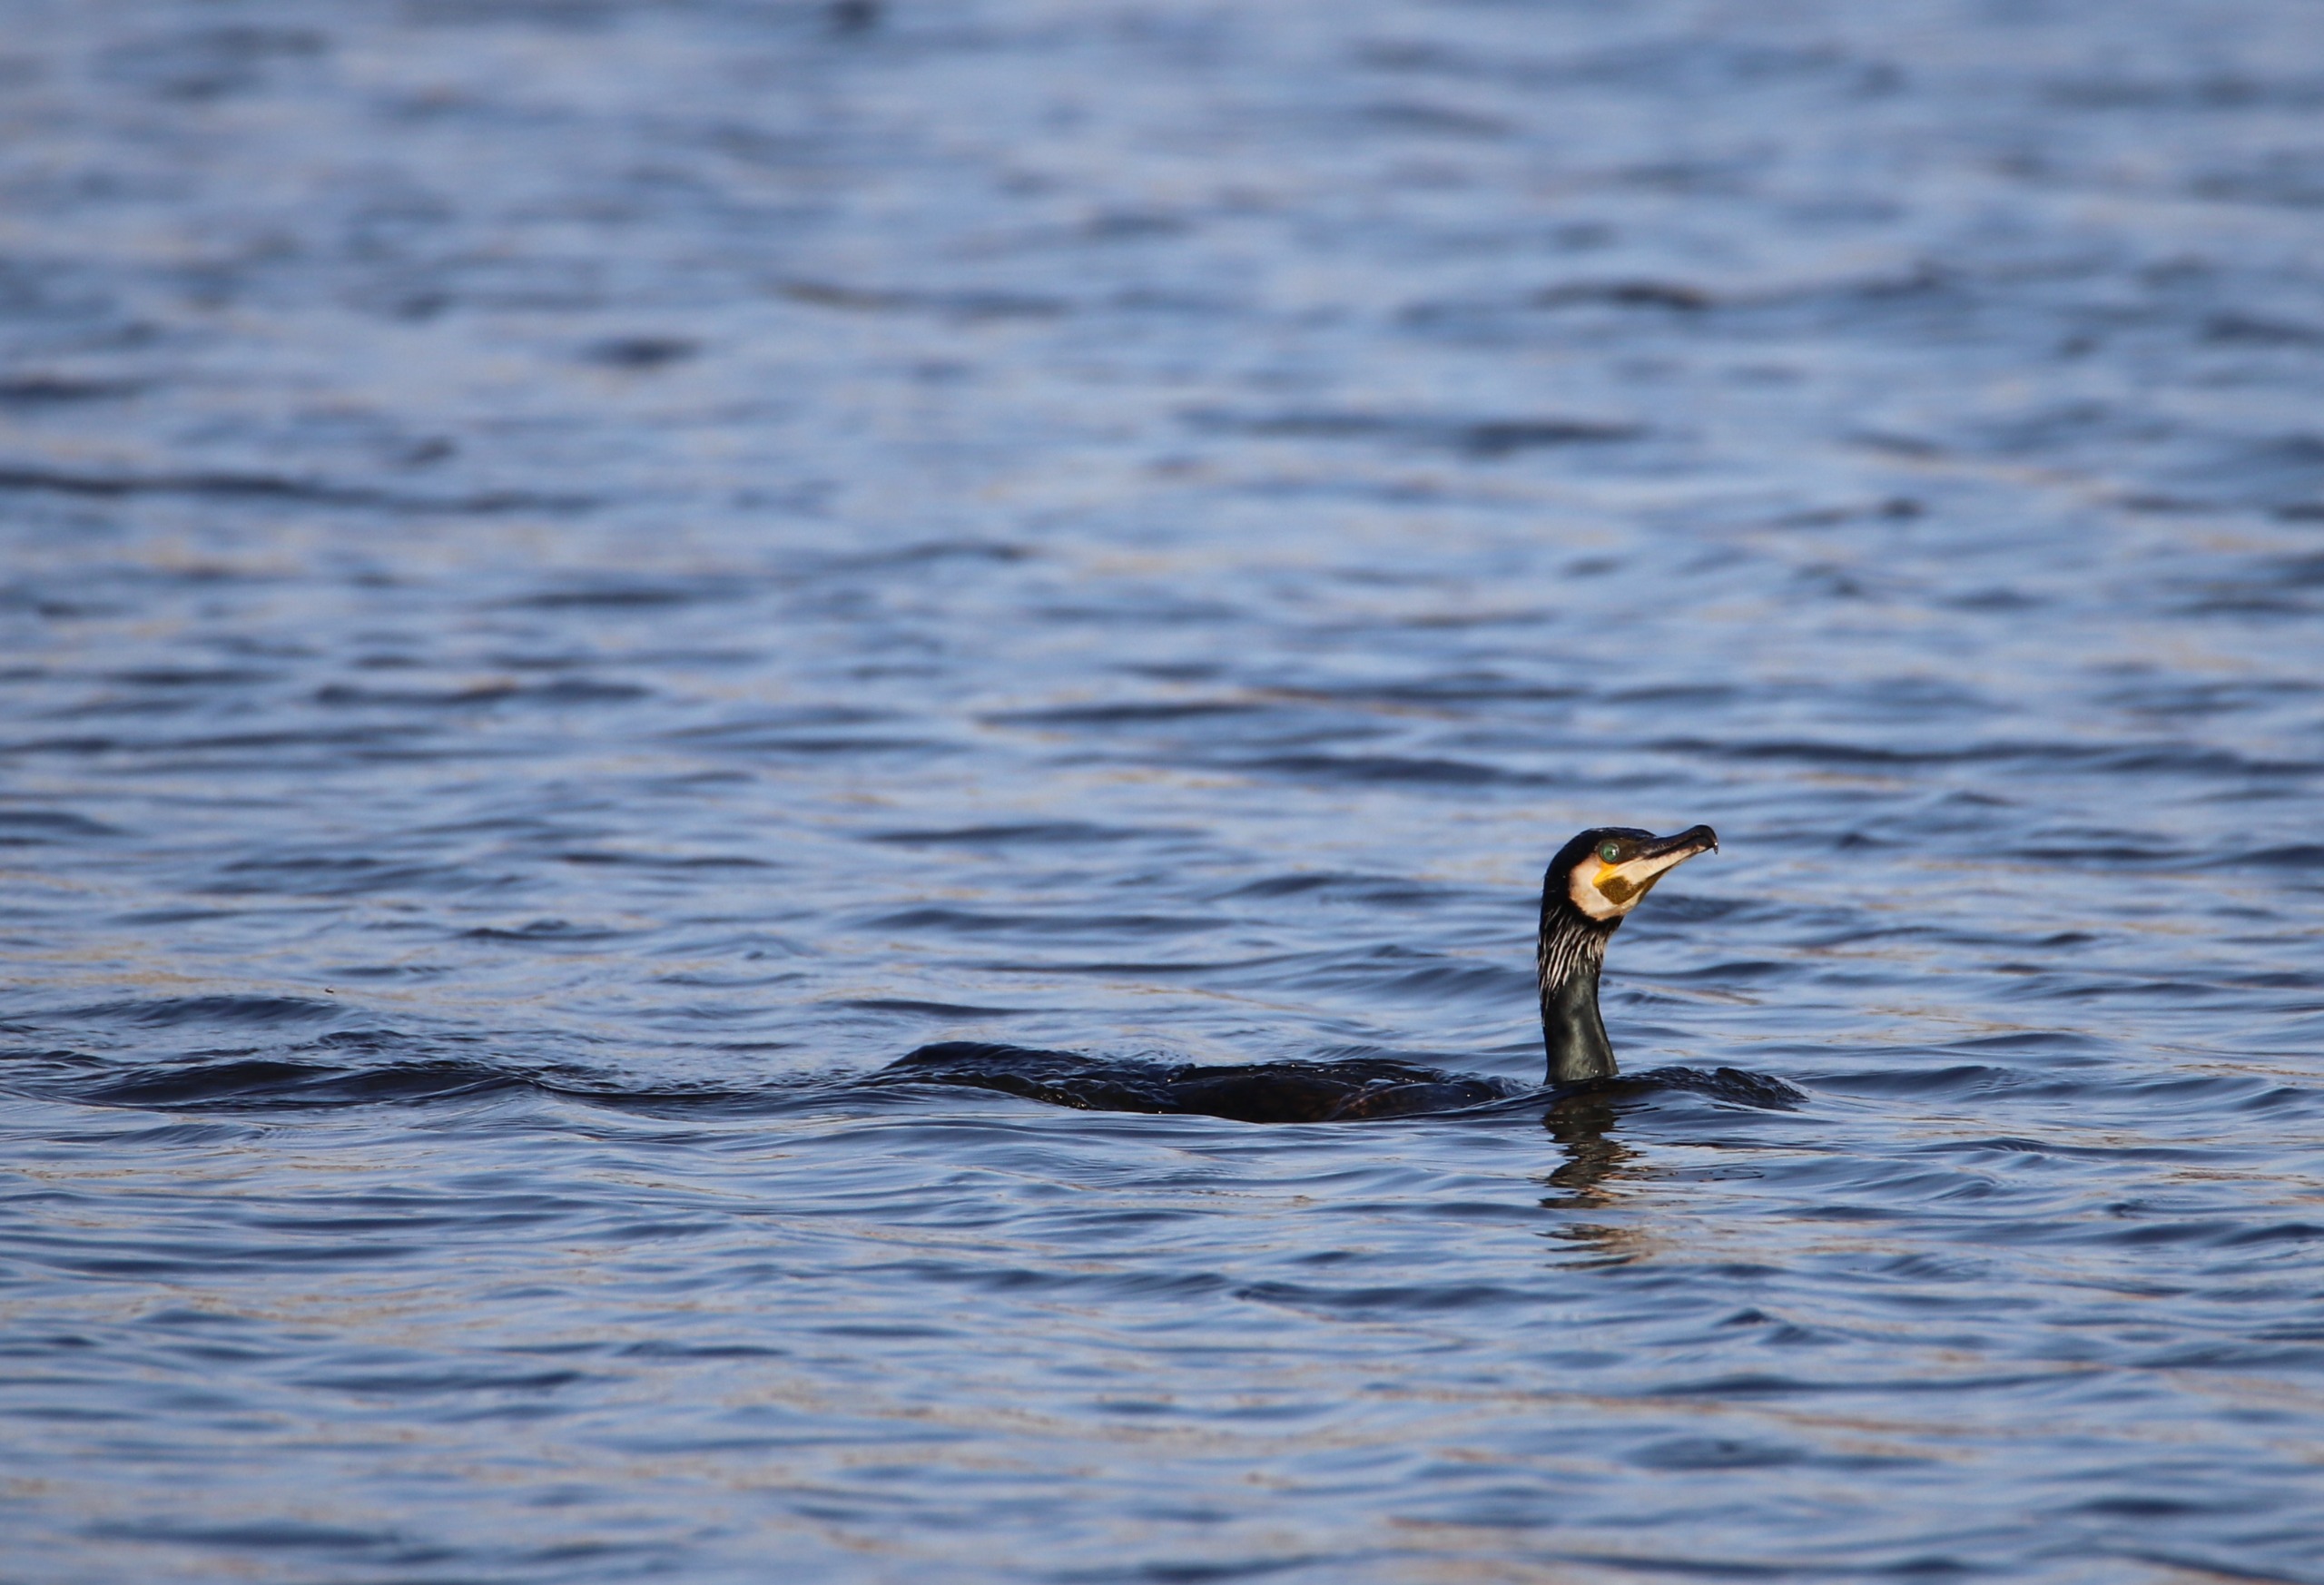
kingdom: Animalia
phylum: Chordata
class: Aves
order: Suliformes
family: Phalacrocoracidae
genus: Phalacrocorax
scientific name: Phalacrocorax carbo
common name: Skarv
